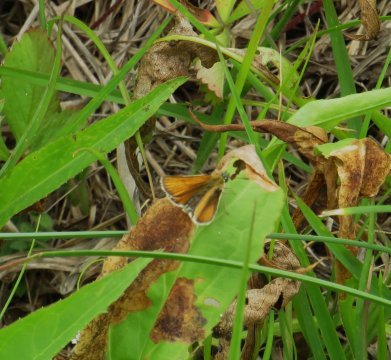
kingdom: Animalia
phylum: Arthropoda
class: Insecta
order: Lepidoptera
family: Hesperiidae
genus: Thymelicus
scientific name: Thymelicus lineola
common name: European Skipper
